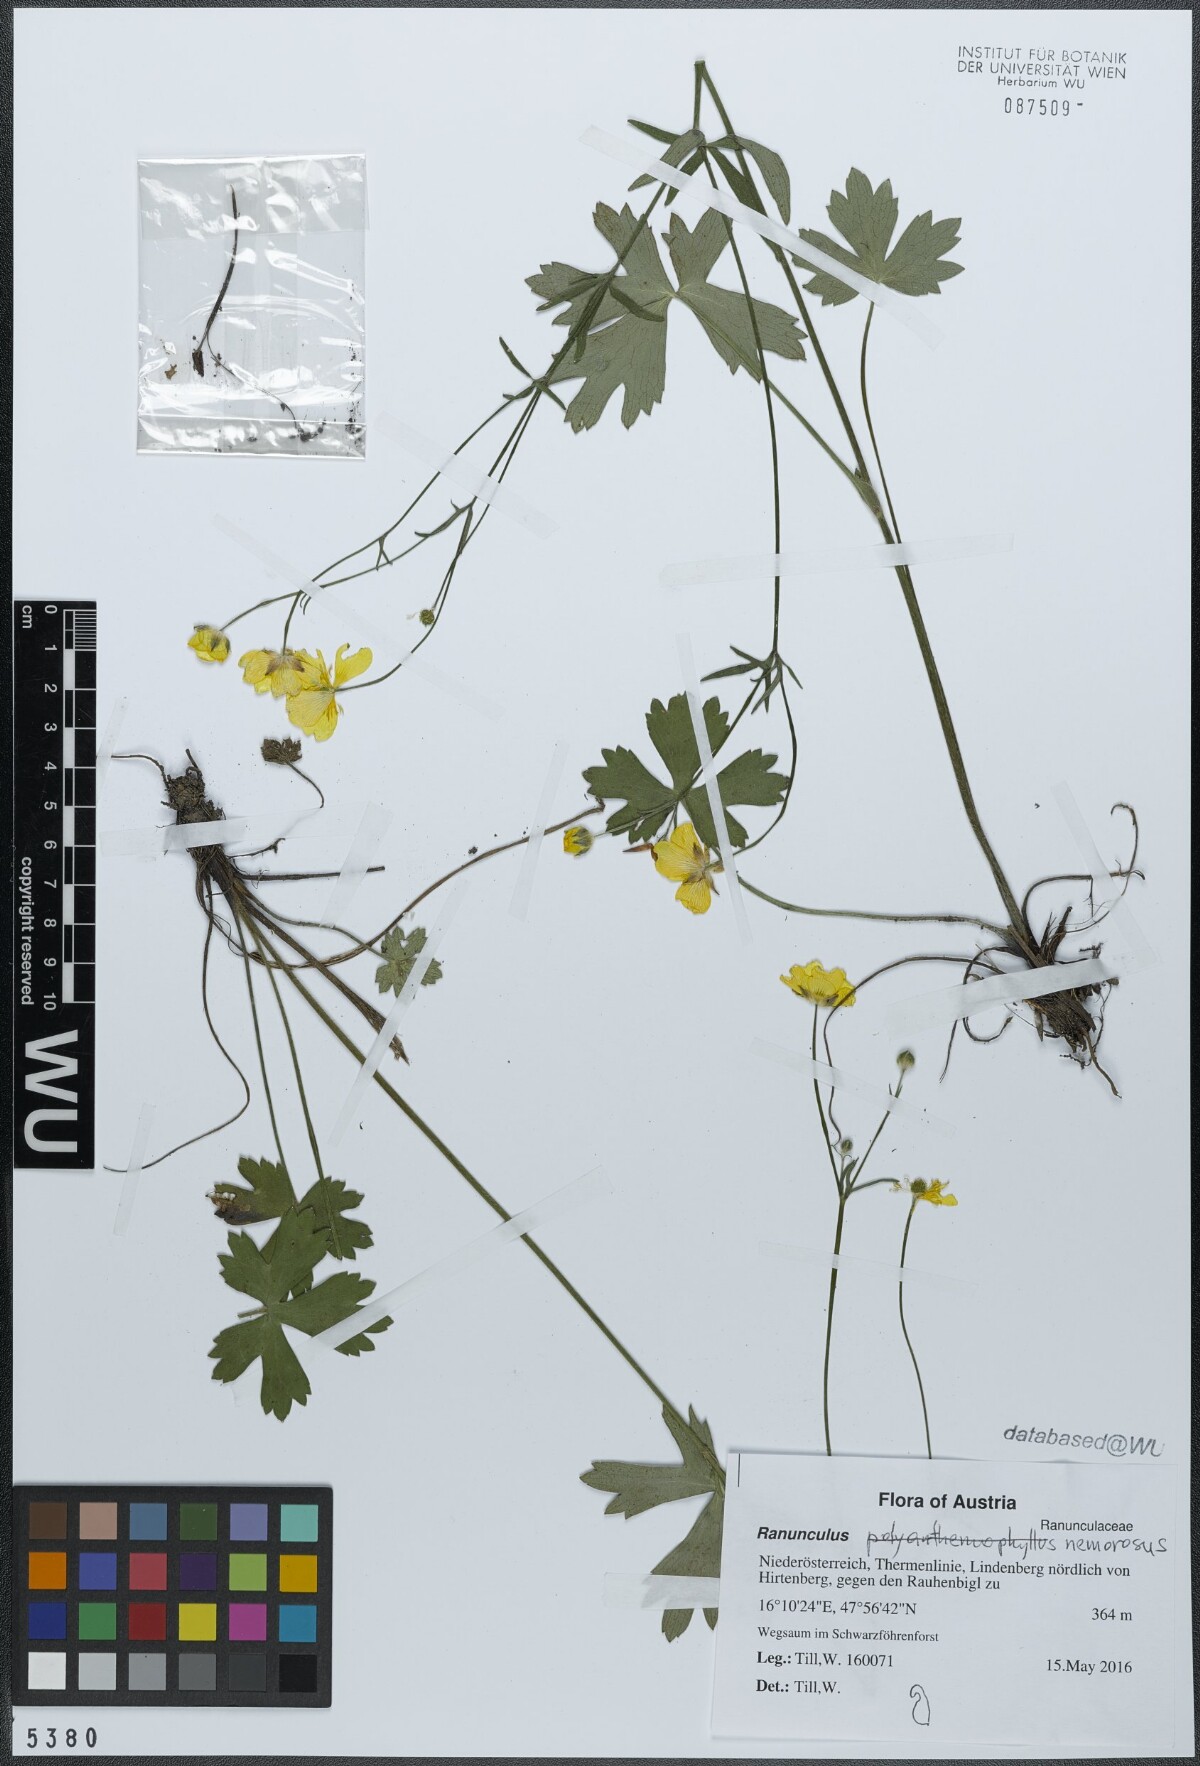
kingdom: Plantae
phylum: Tracheophyta
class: Magnoliopsida
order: Ranunculales
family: Ranunculaceae
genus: Ranunculus
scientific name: Ranunculus polyanthemos
